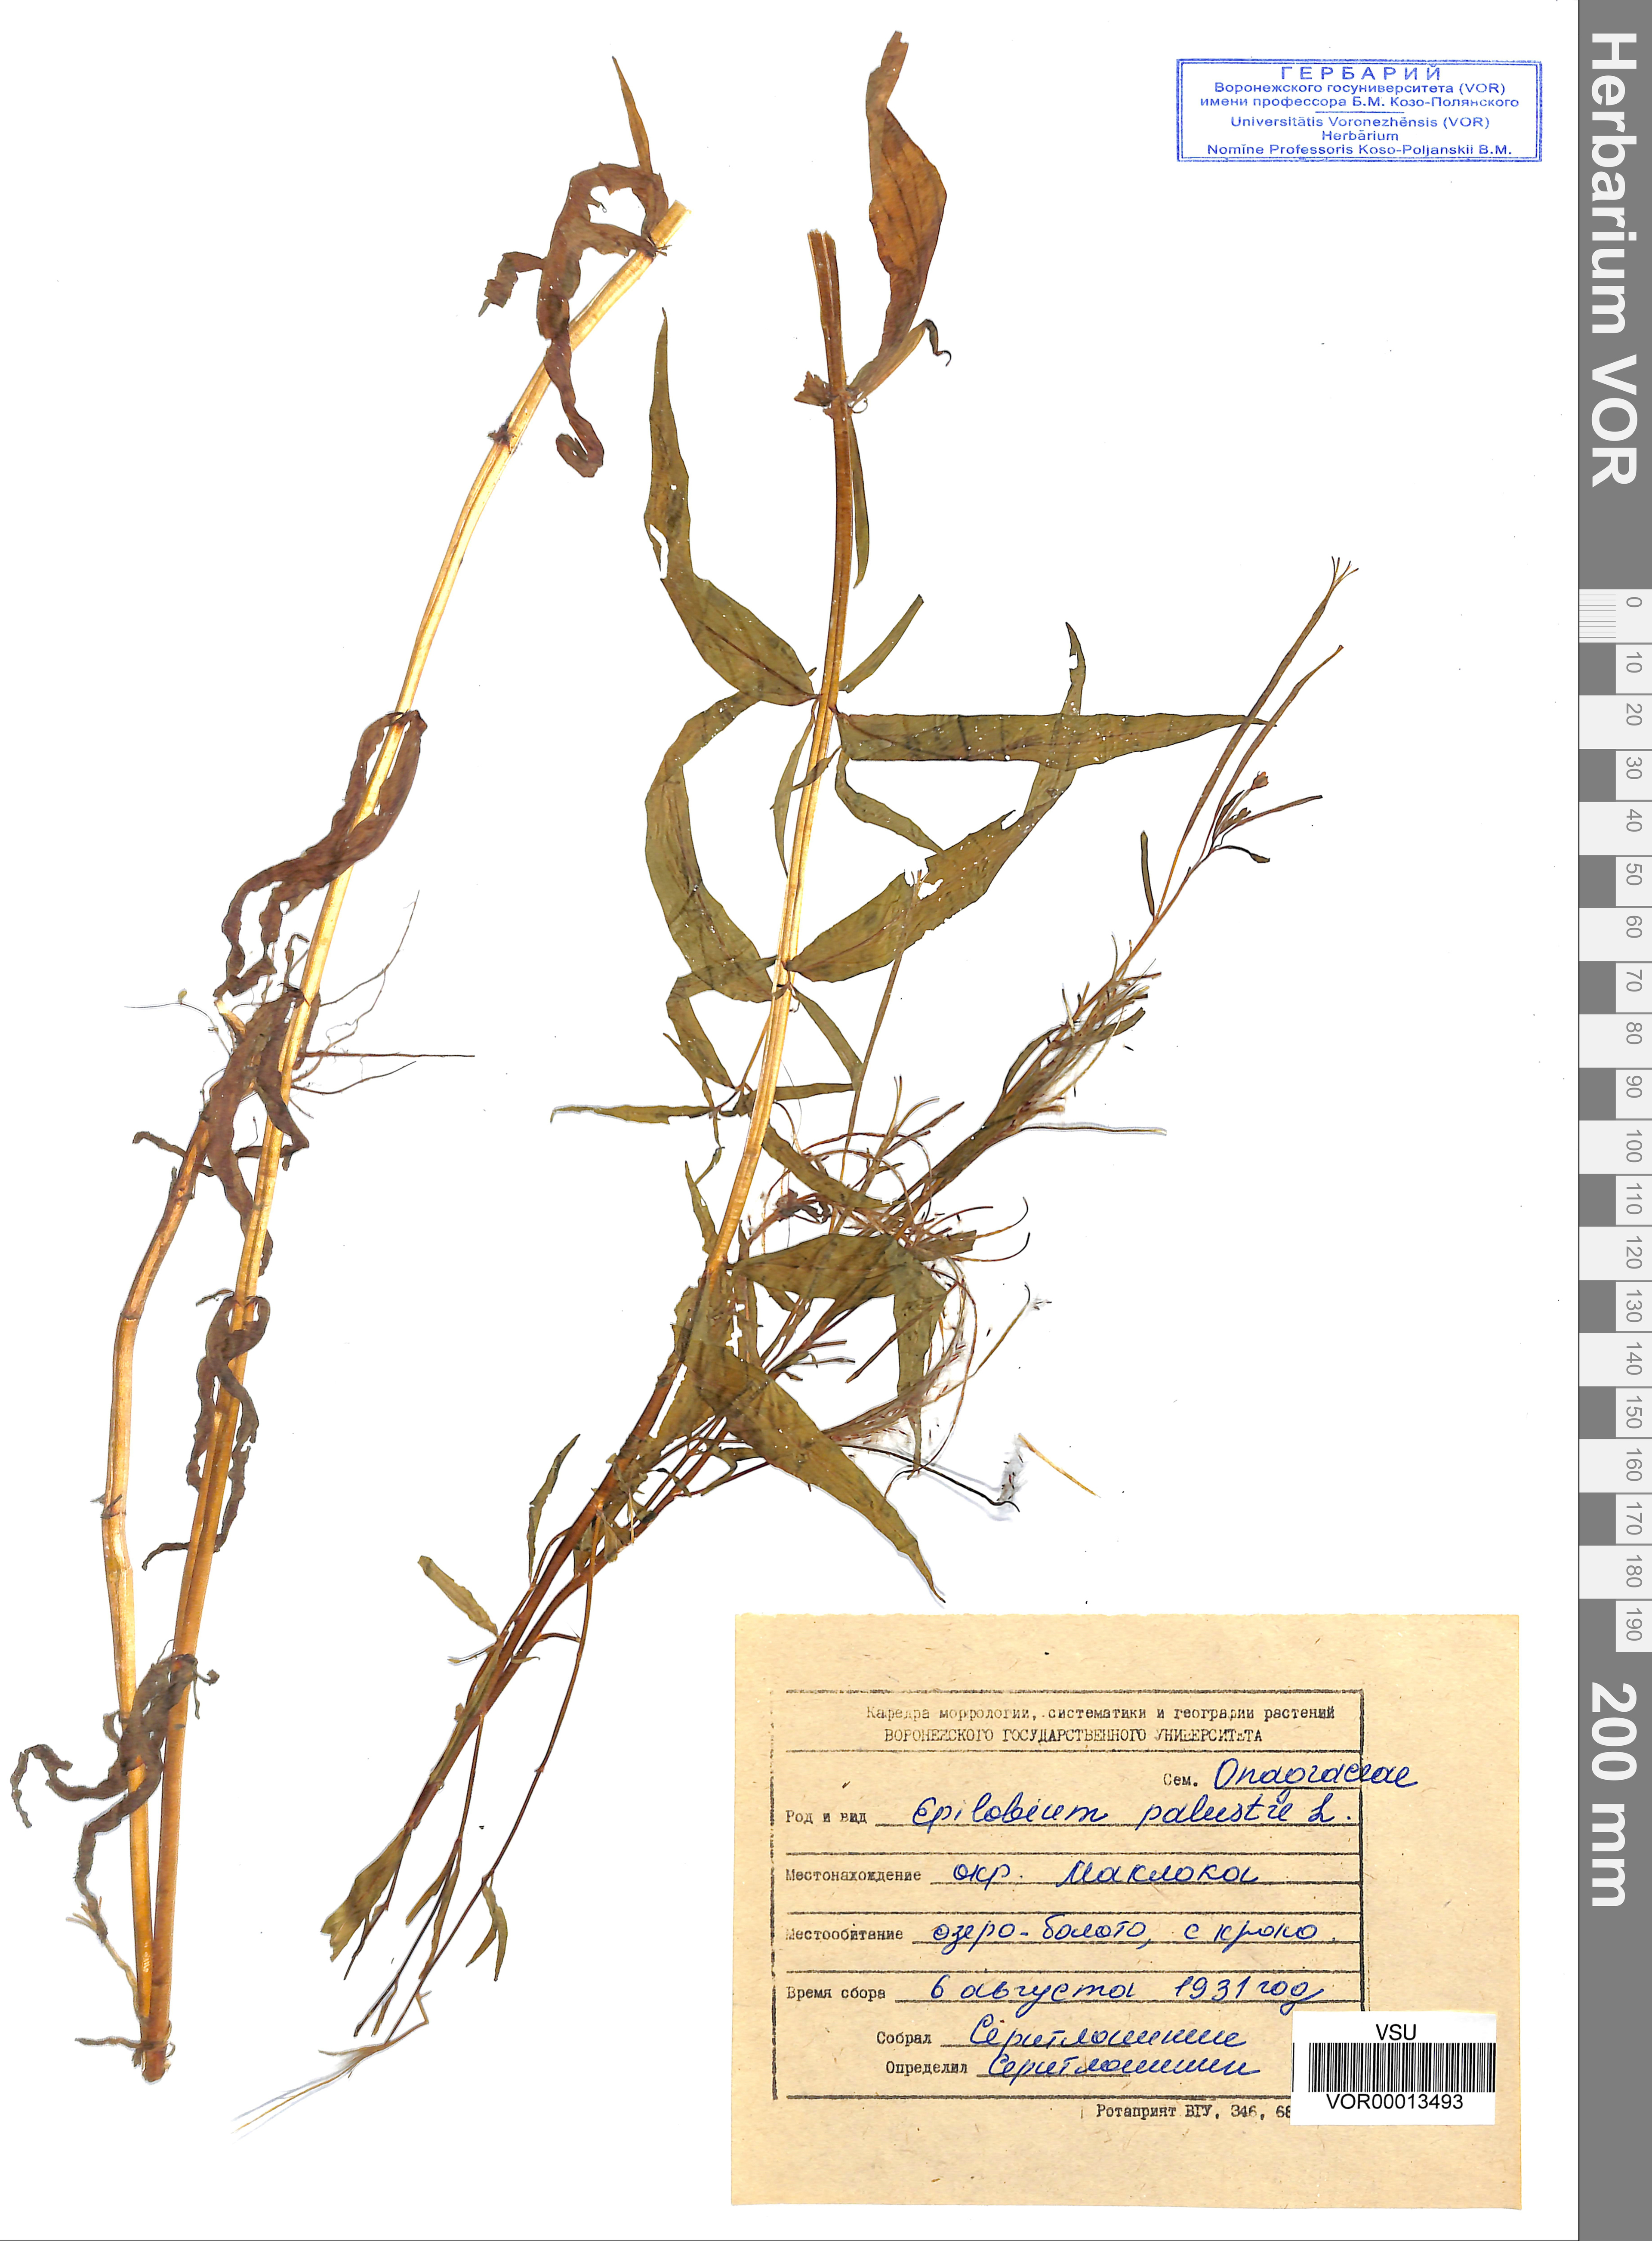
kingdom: Plantae
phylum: Tracheophyta
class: Magnoliopsida
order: Myrtales
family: Onagraceae
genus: Epilobium
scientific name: Epilobium palustre
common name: Marsh willowherb
